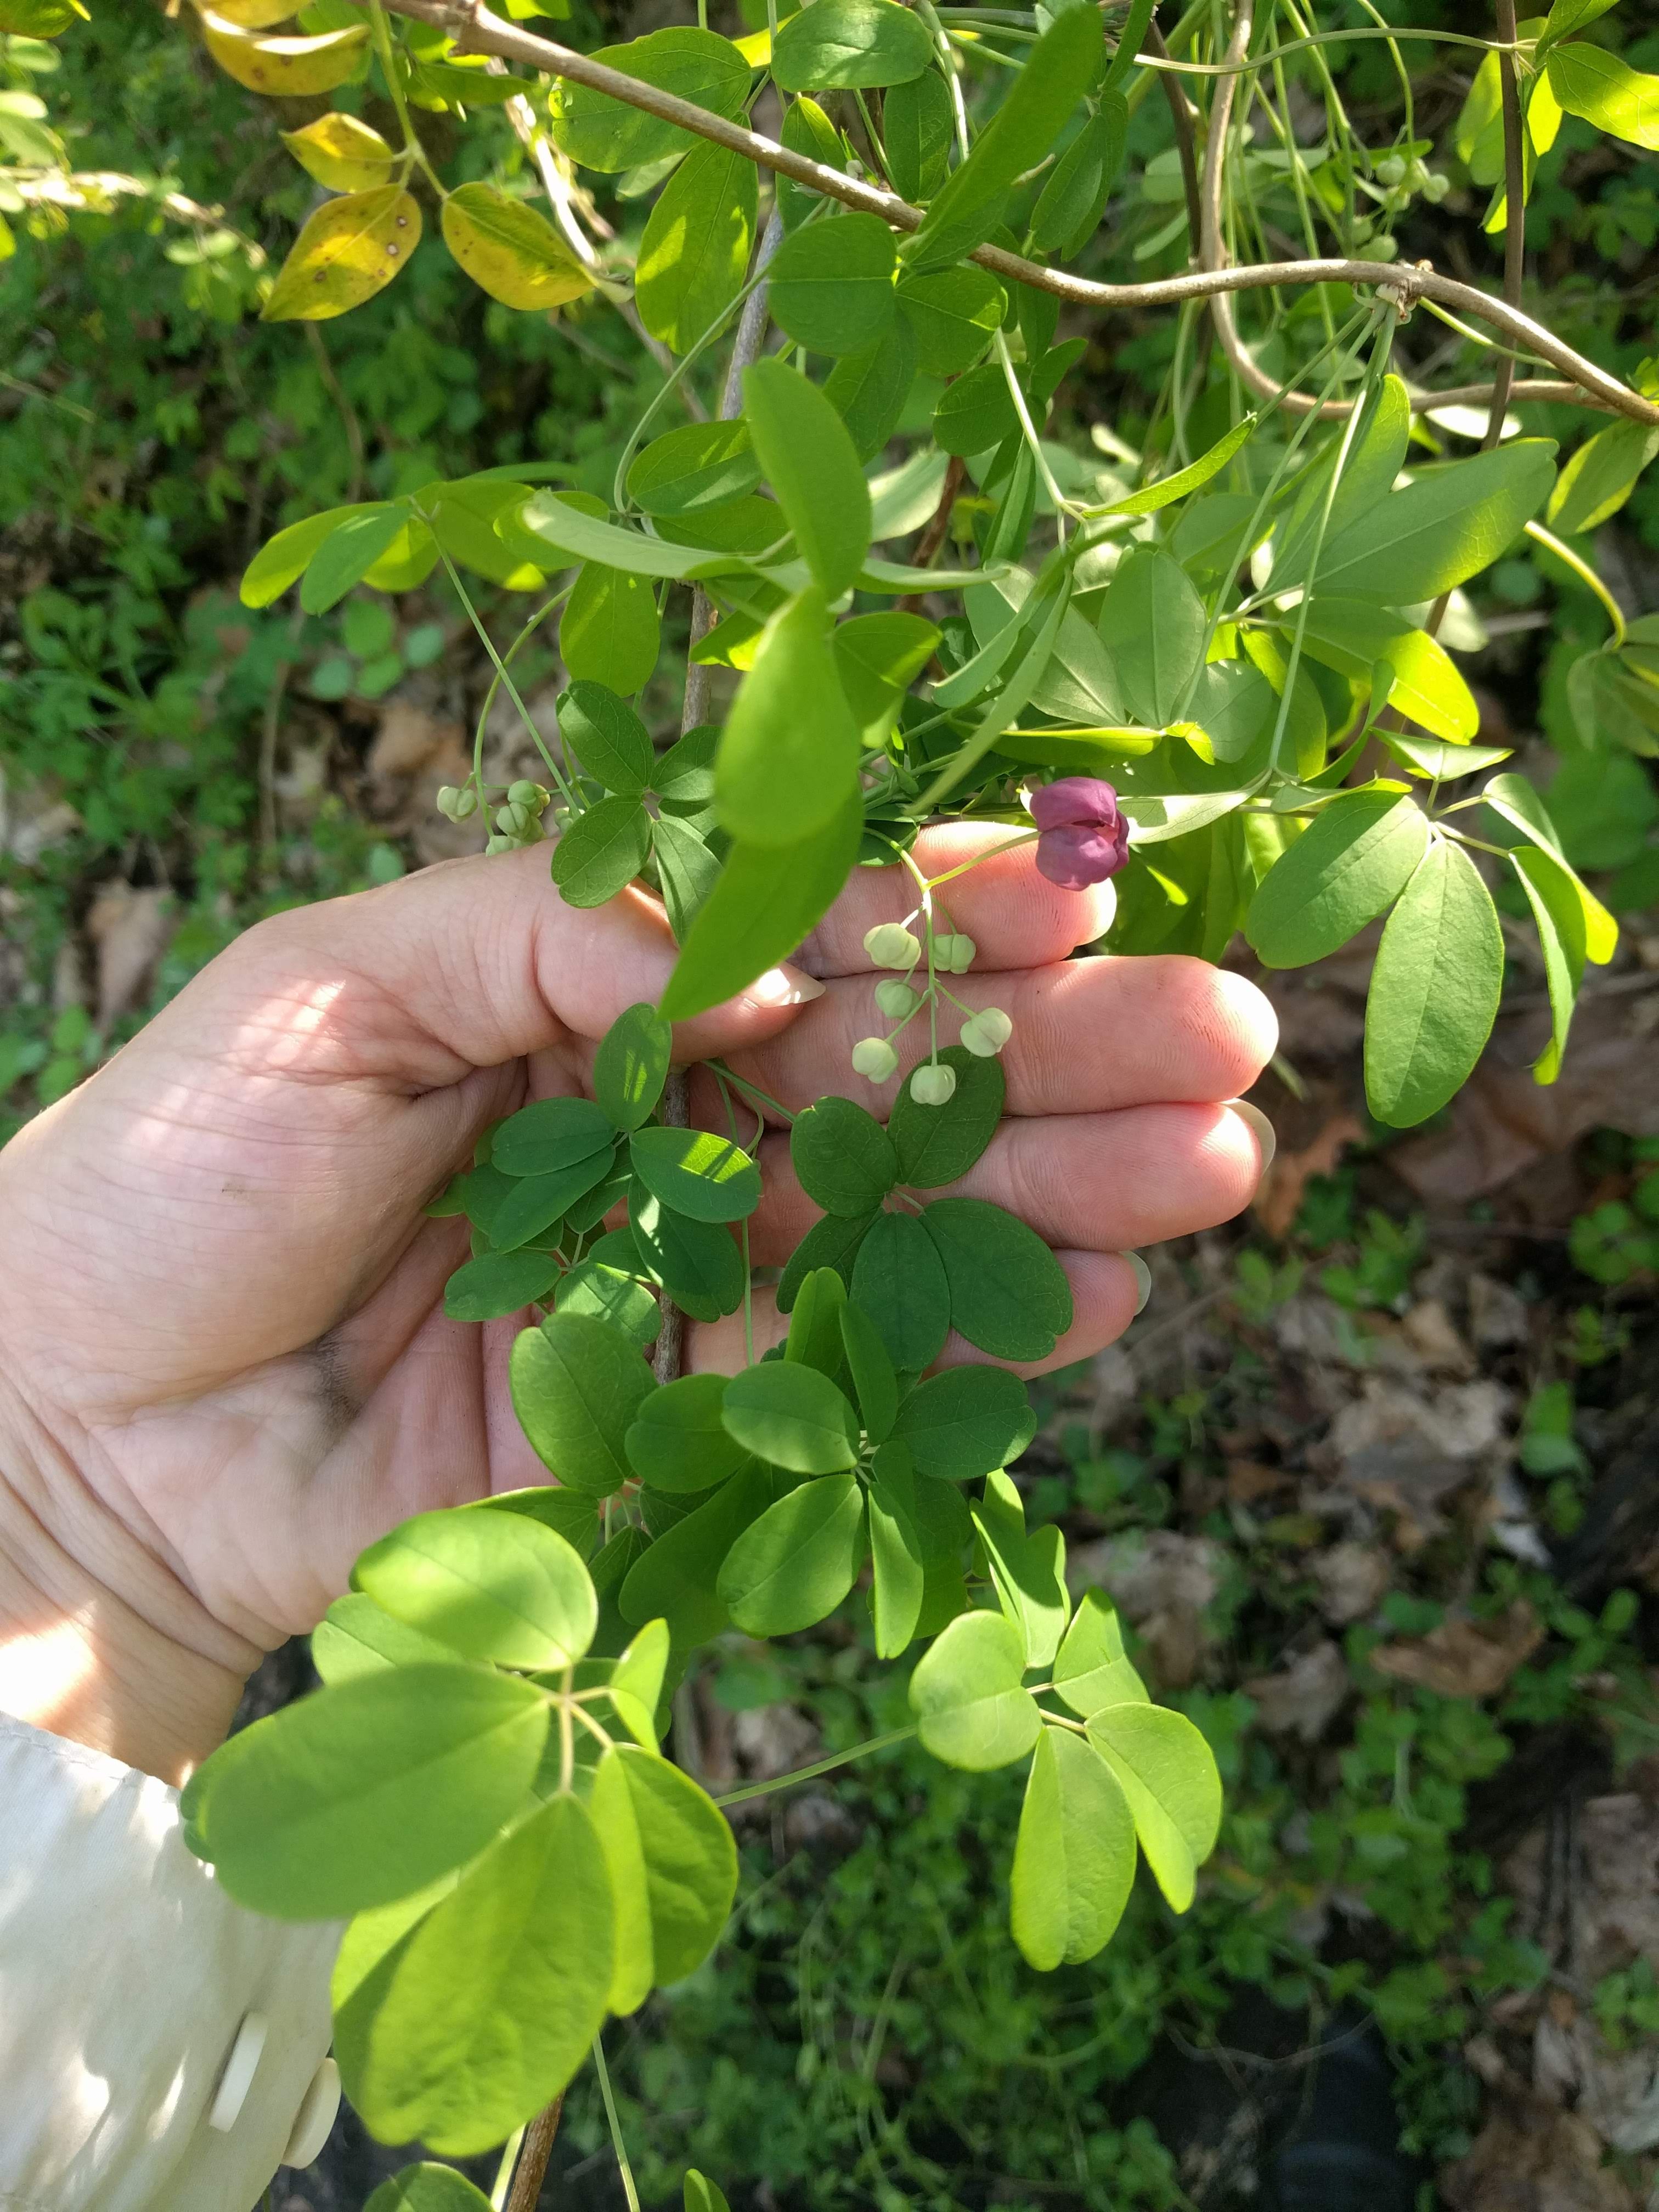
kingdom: Plantae
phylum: Tracheophyta
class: Magnoliopsida
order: Ranunculales
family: Lardizabalaceae
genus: Akebia
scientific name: Akebia quinata
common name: Five-leaf akebia
